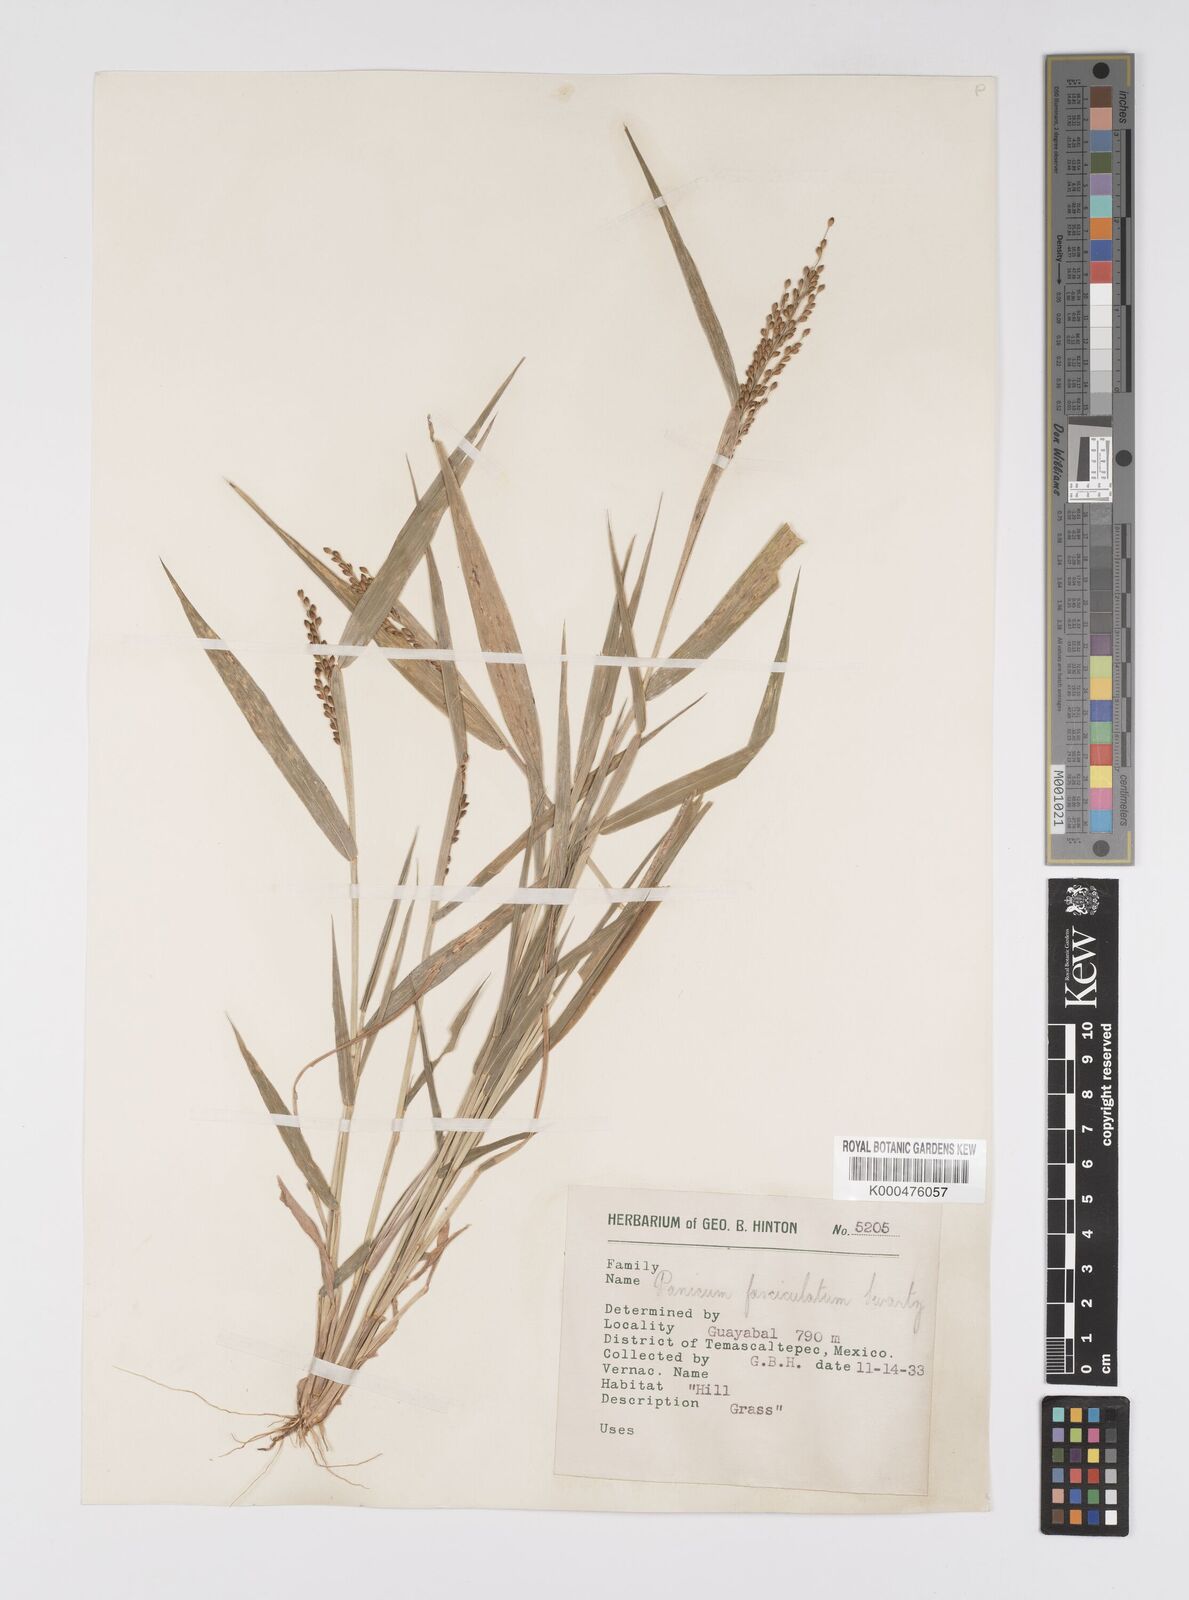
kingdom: Plantae
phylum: Tracheophyta
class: Liliopsida
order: Poales
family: Poaceae
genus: Urochloa
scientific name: Urochloa fusca
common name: Browntop signal grass
